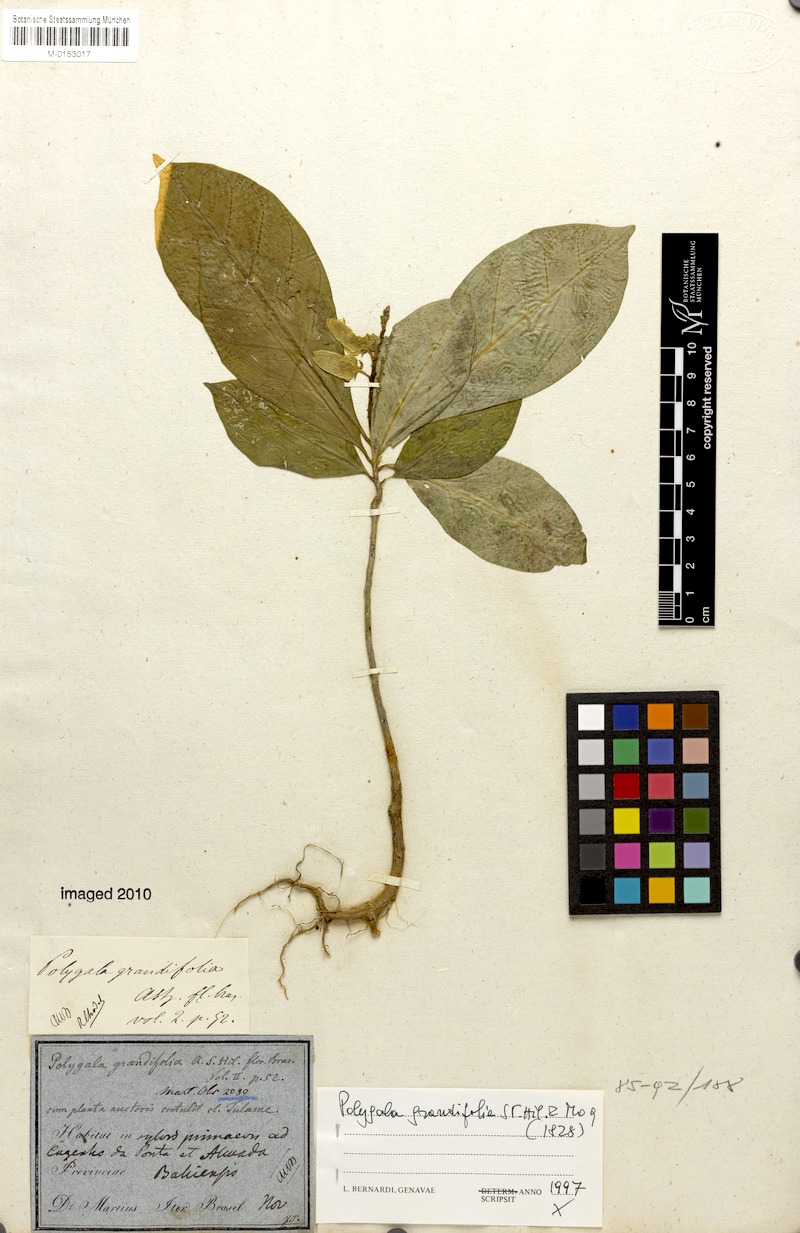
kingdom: Plantae
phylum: Tracheophyta
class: Magnoliopsida
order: Fabales
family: Polygalaceae
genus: Caamembeca
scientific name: Caamembeca grandifolia
